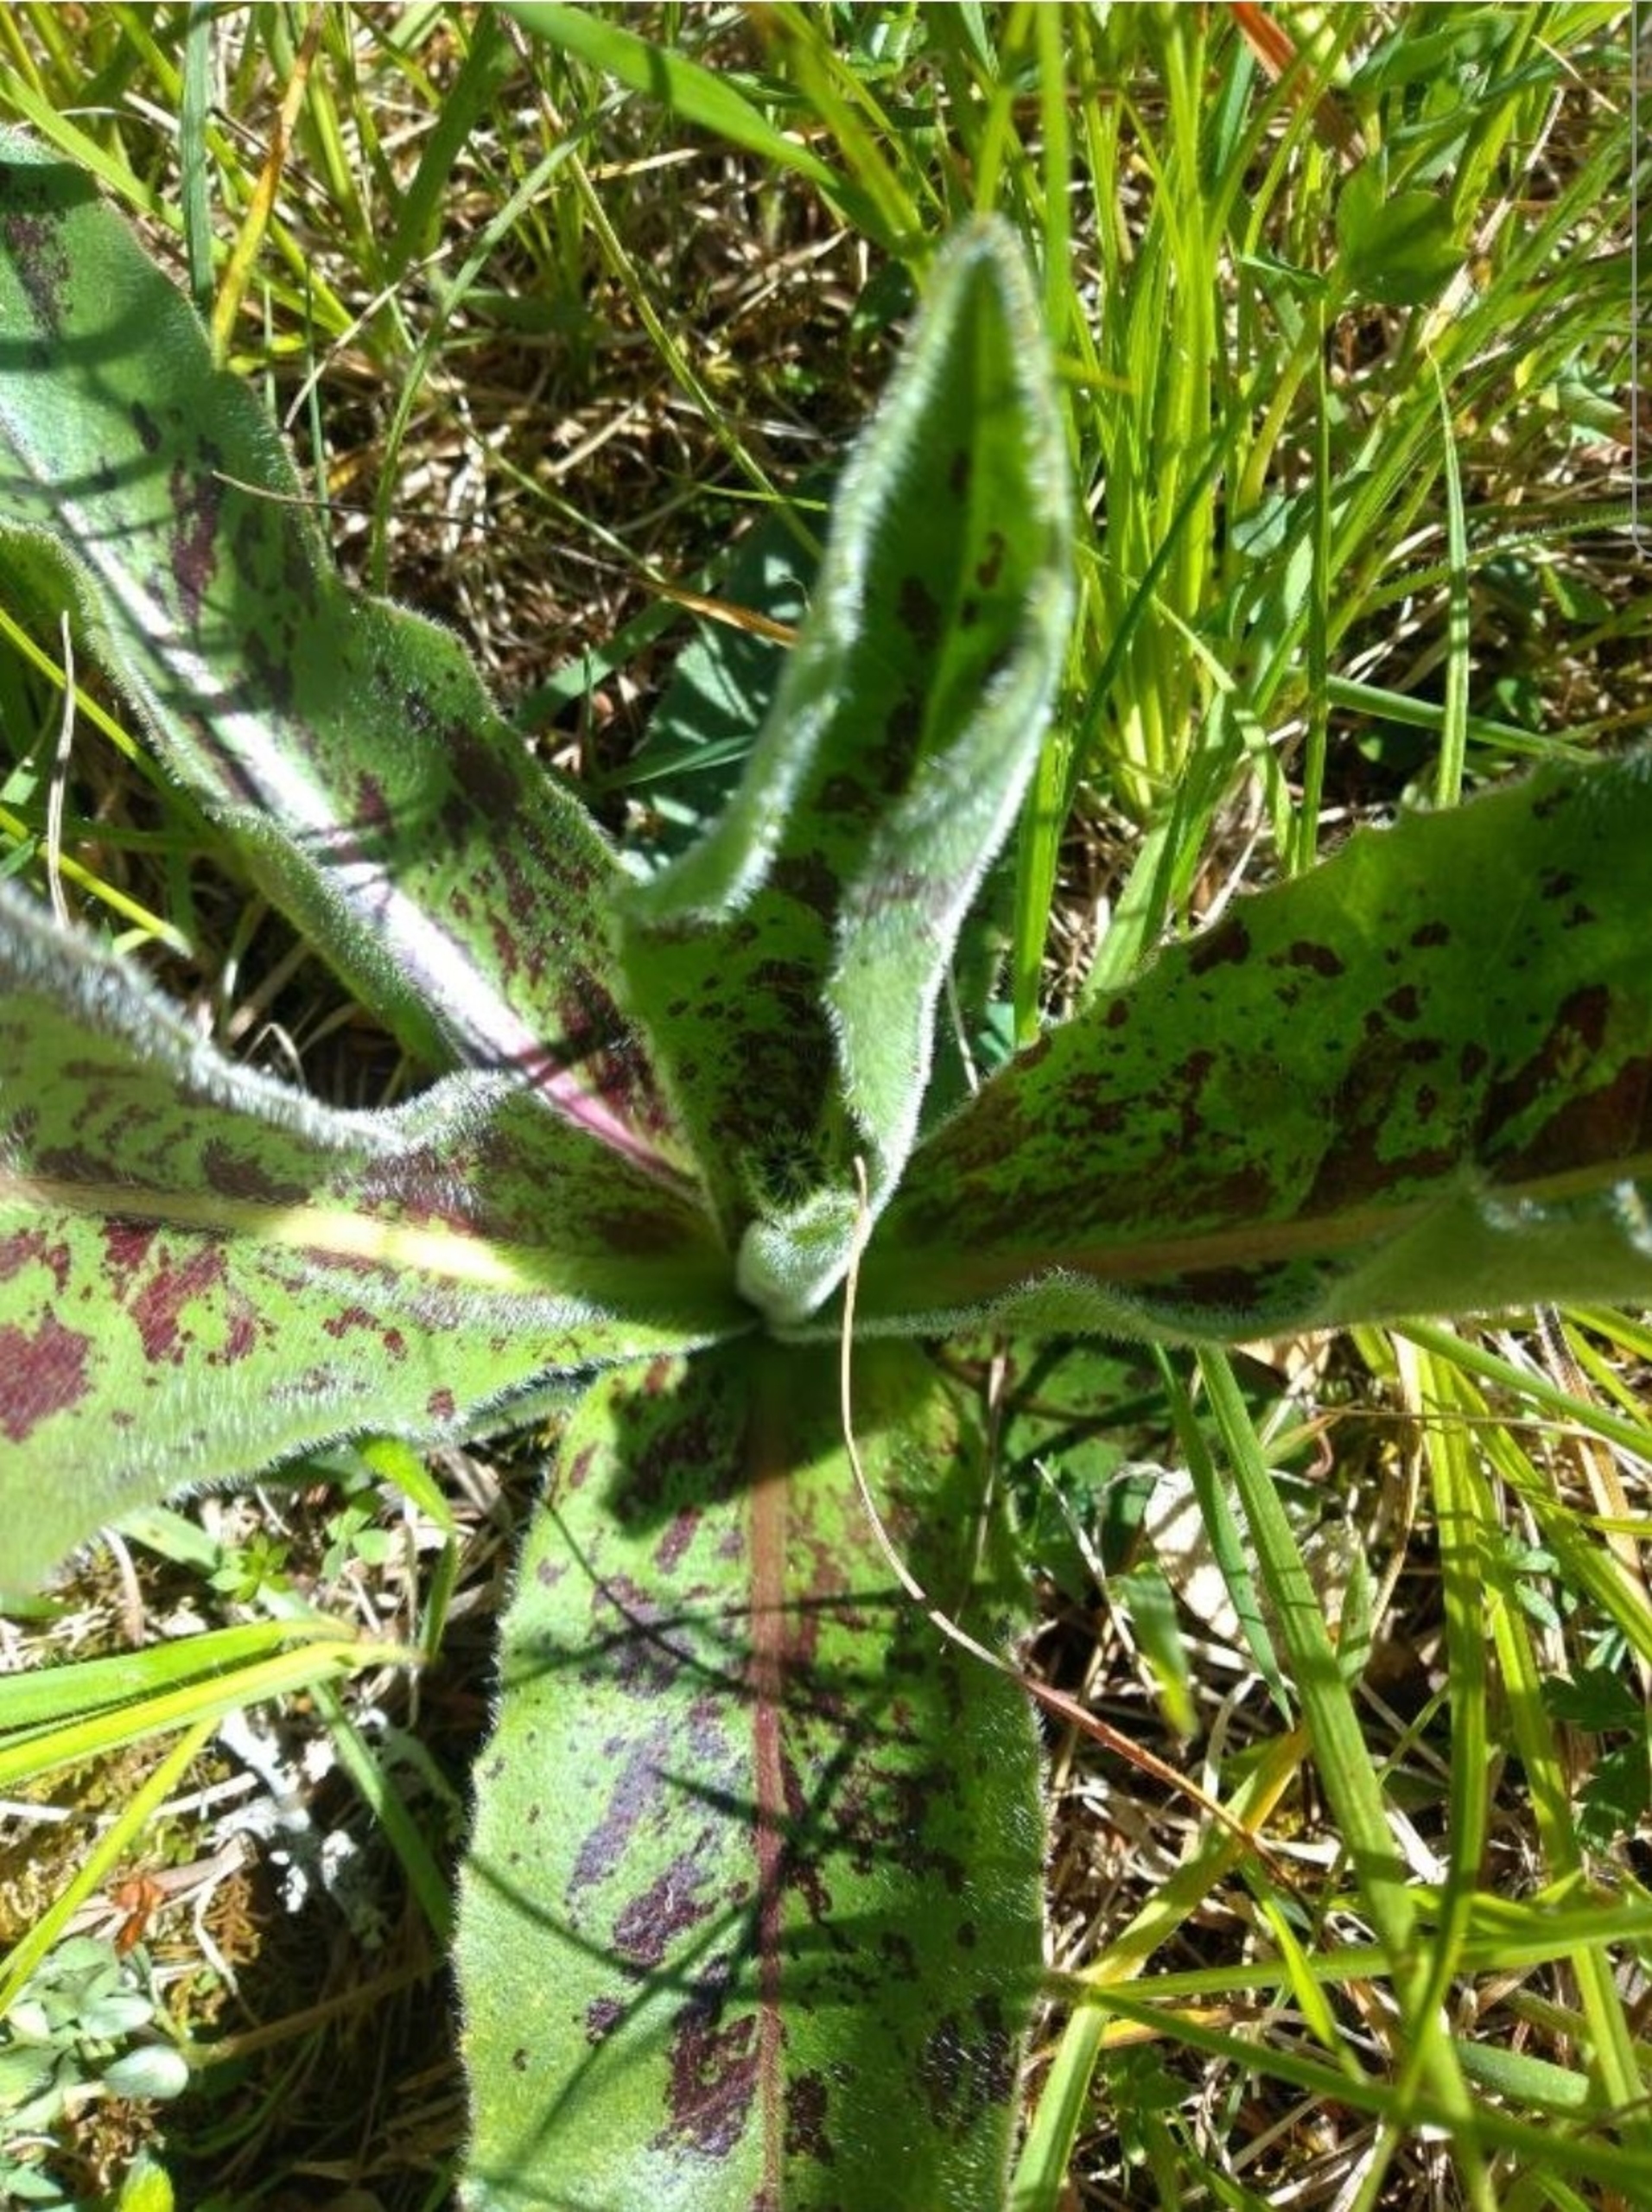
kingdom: Plantae
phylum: Tracheophyta
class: Magnoliopsida
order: Asterales
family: Asteraceae
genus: Trommsdorffia
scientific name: Trommsdorffia maculata
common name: Plettet kongepen
